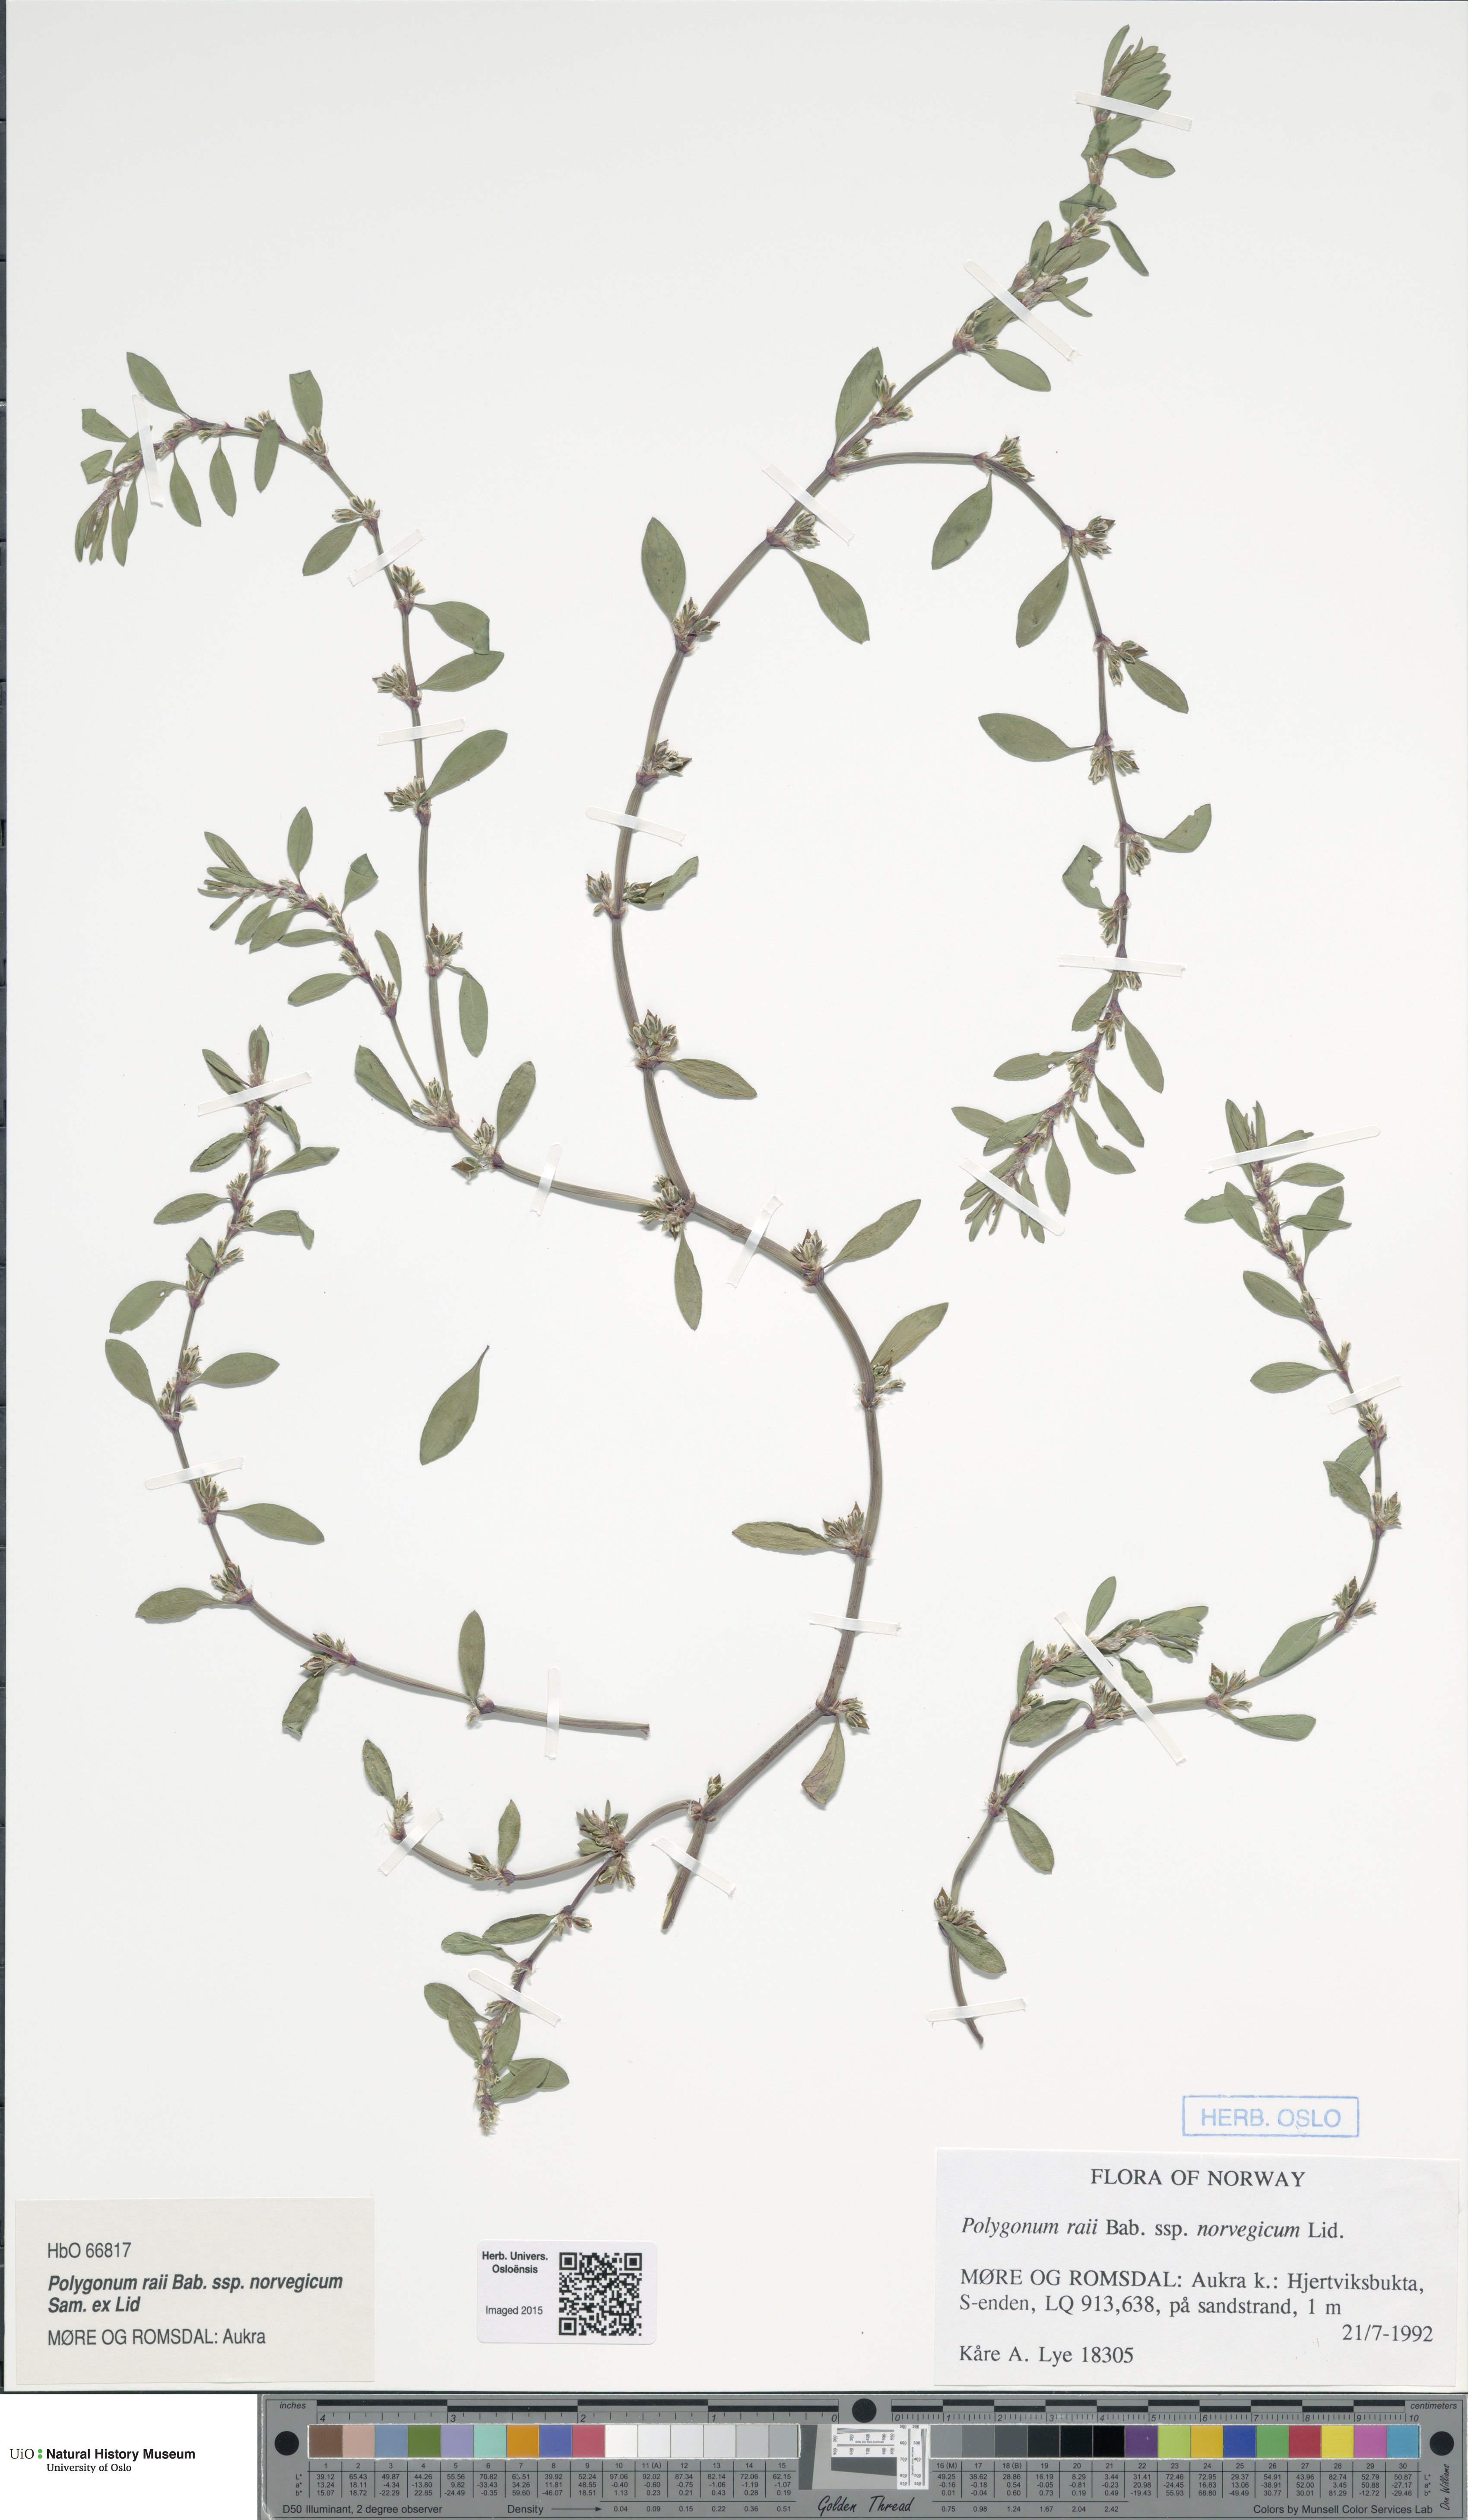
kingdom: Plantae
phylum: Tracheophyta
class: Magnoliopsida
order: Caryophyllales
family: Polygonaceae
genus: Polygonum
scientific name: Polygonum norvegicum
